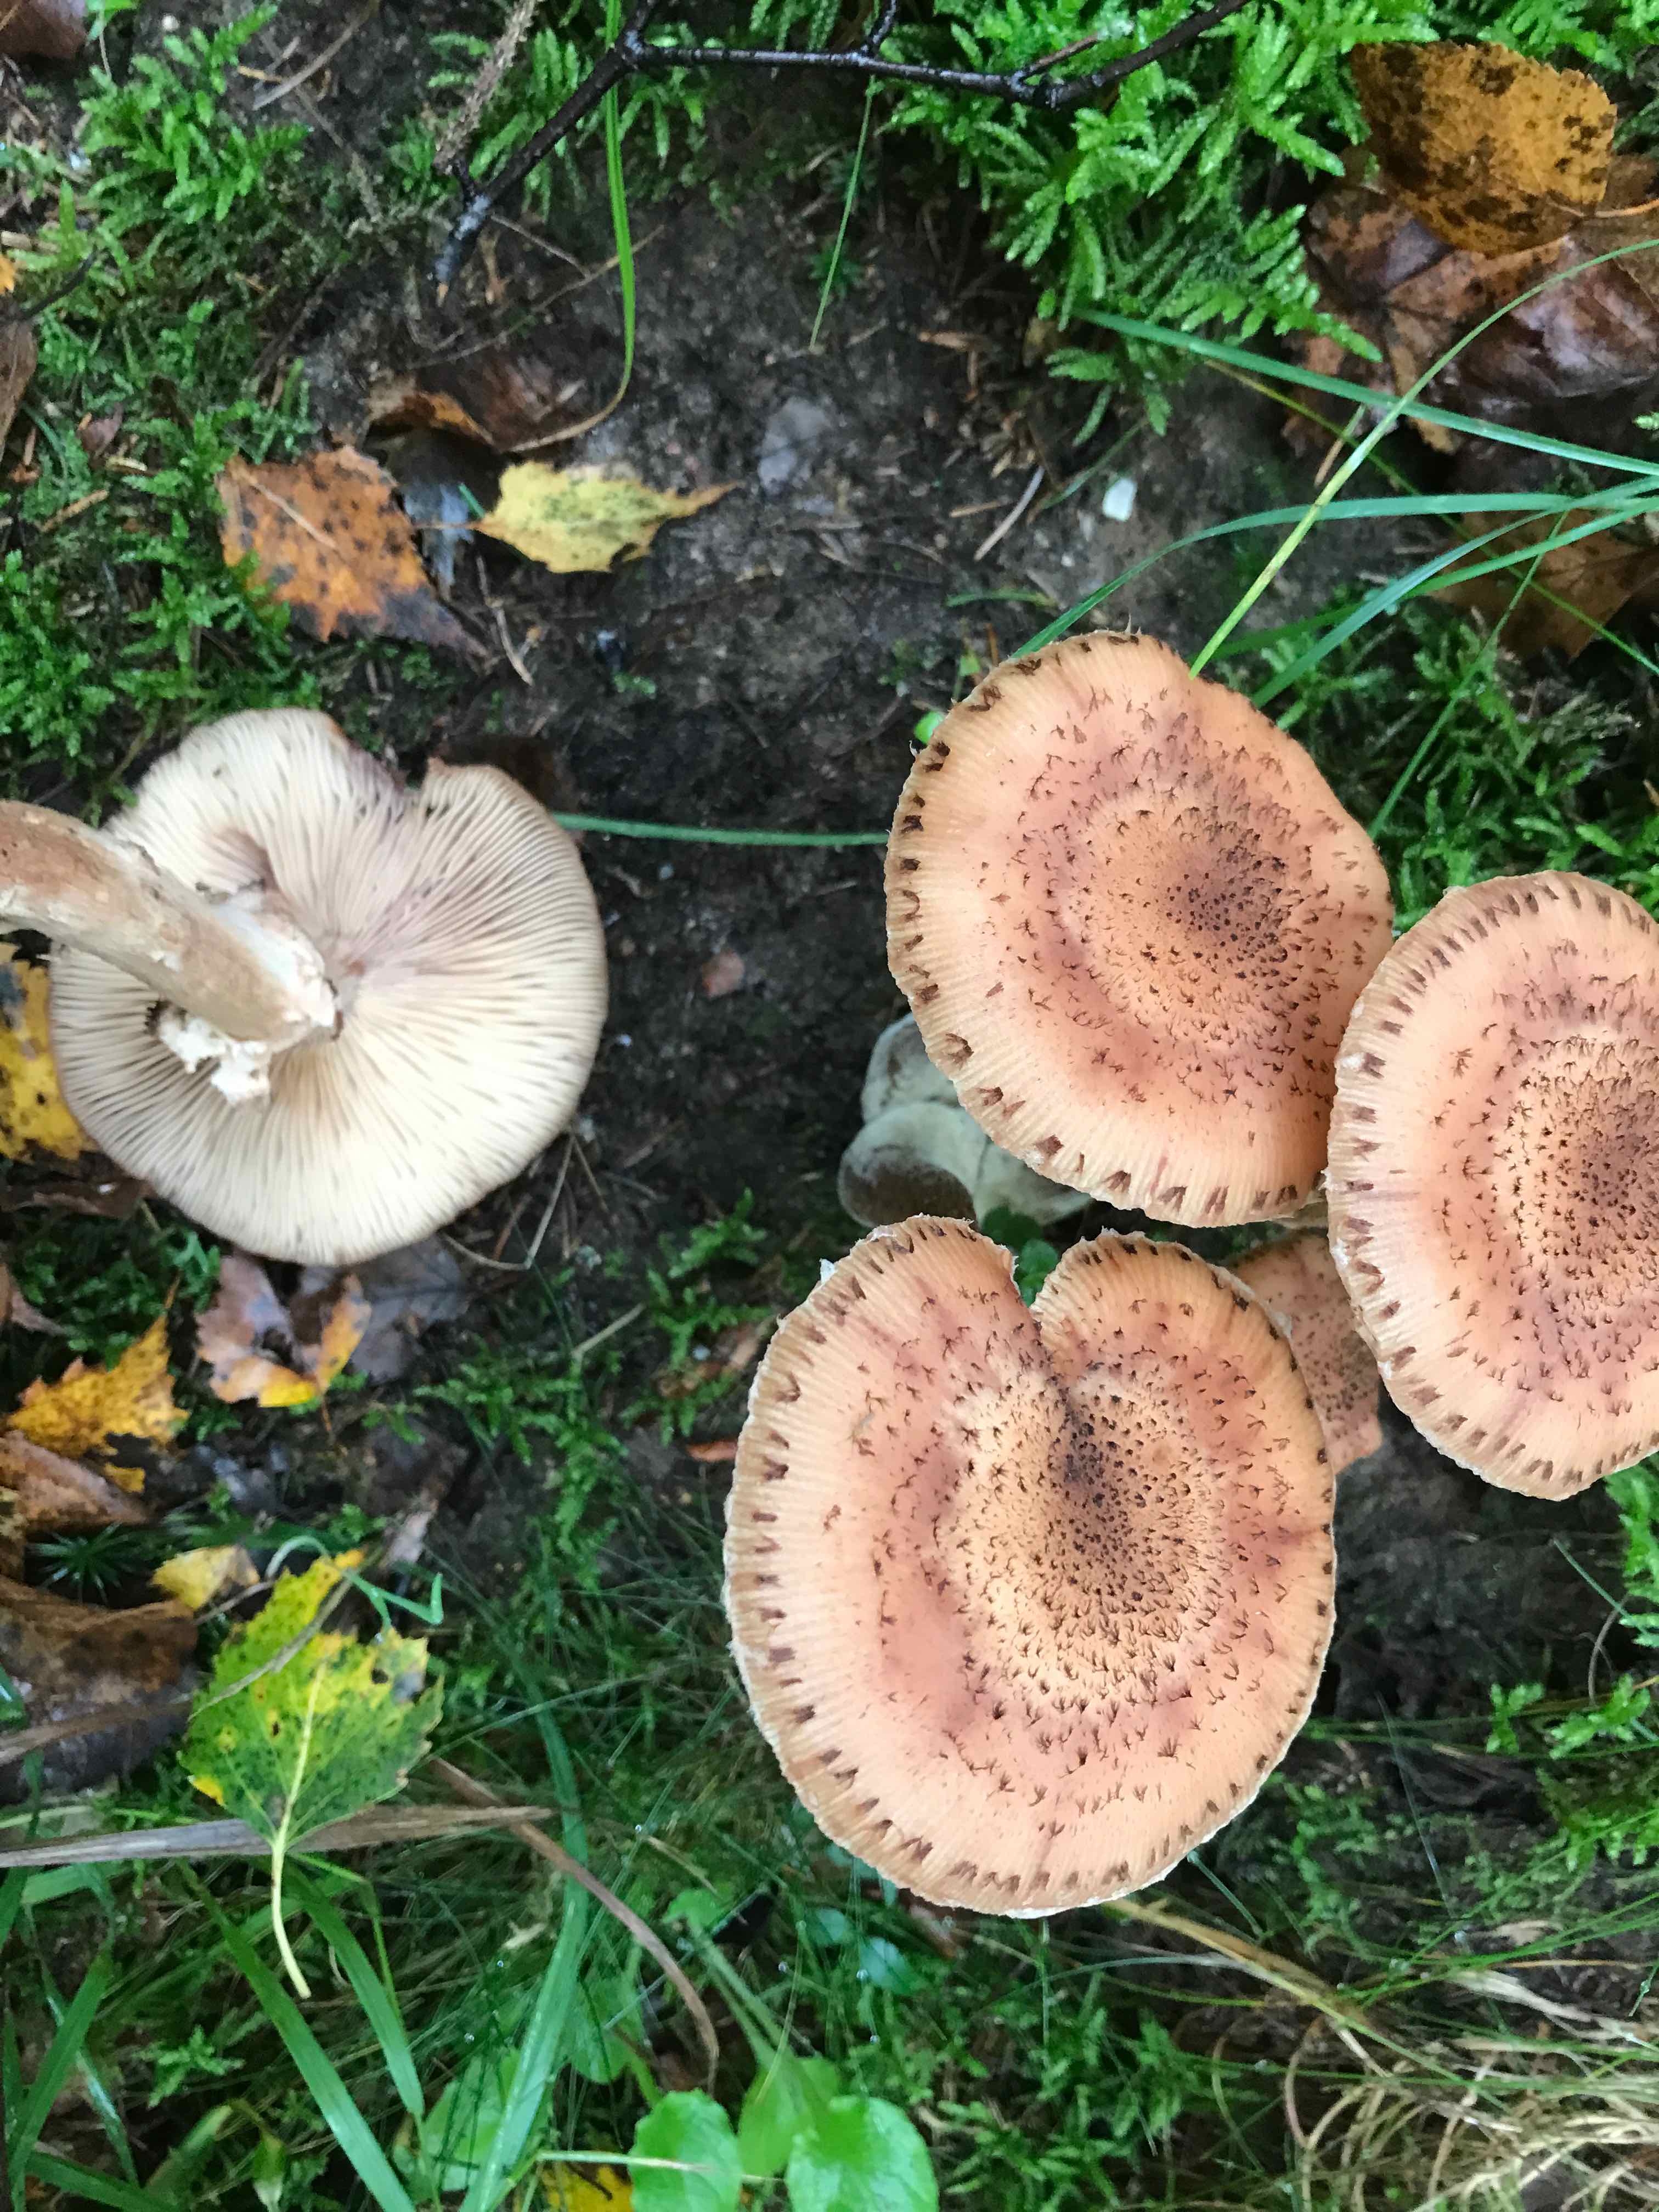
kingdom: Fungi
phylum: Basidiomycota
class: Agaricomycetes
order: Agaricales
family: Physalacriaceae
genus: Armillaria
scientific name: Armillaria ostoyae
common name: mørk honningsvamp
